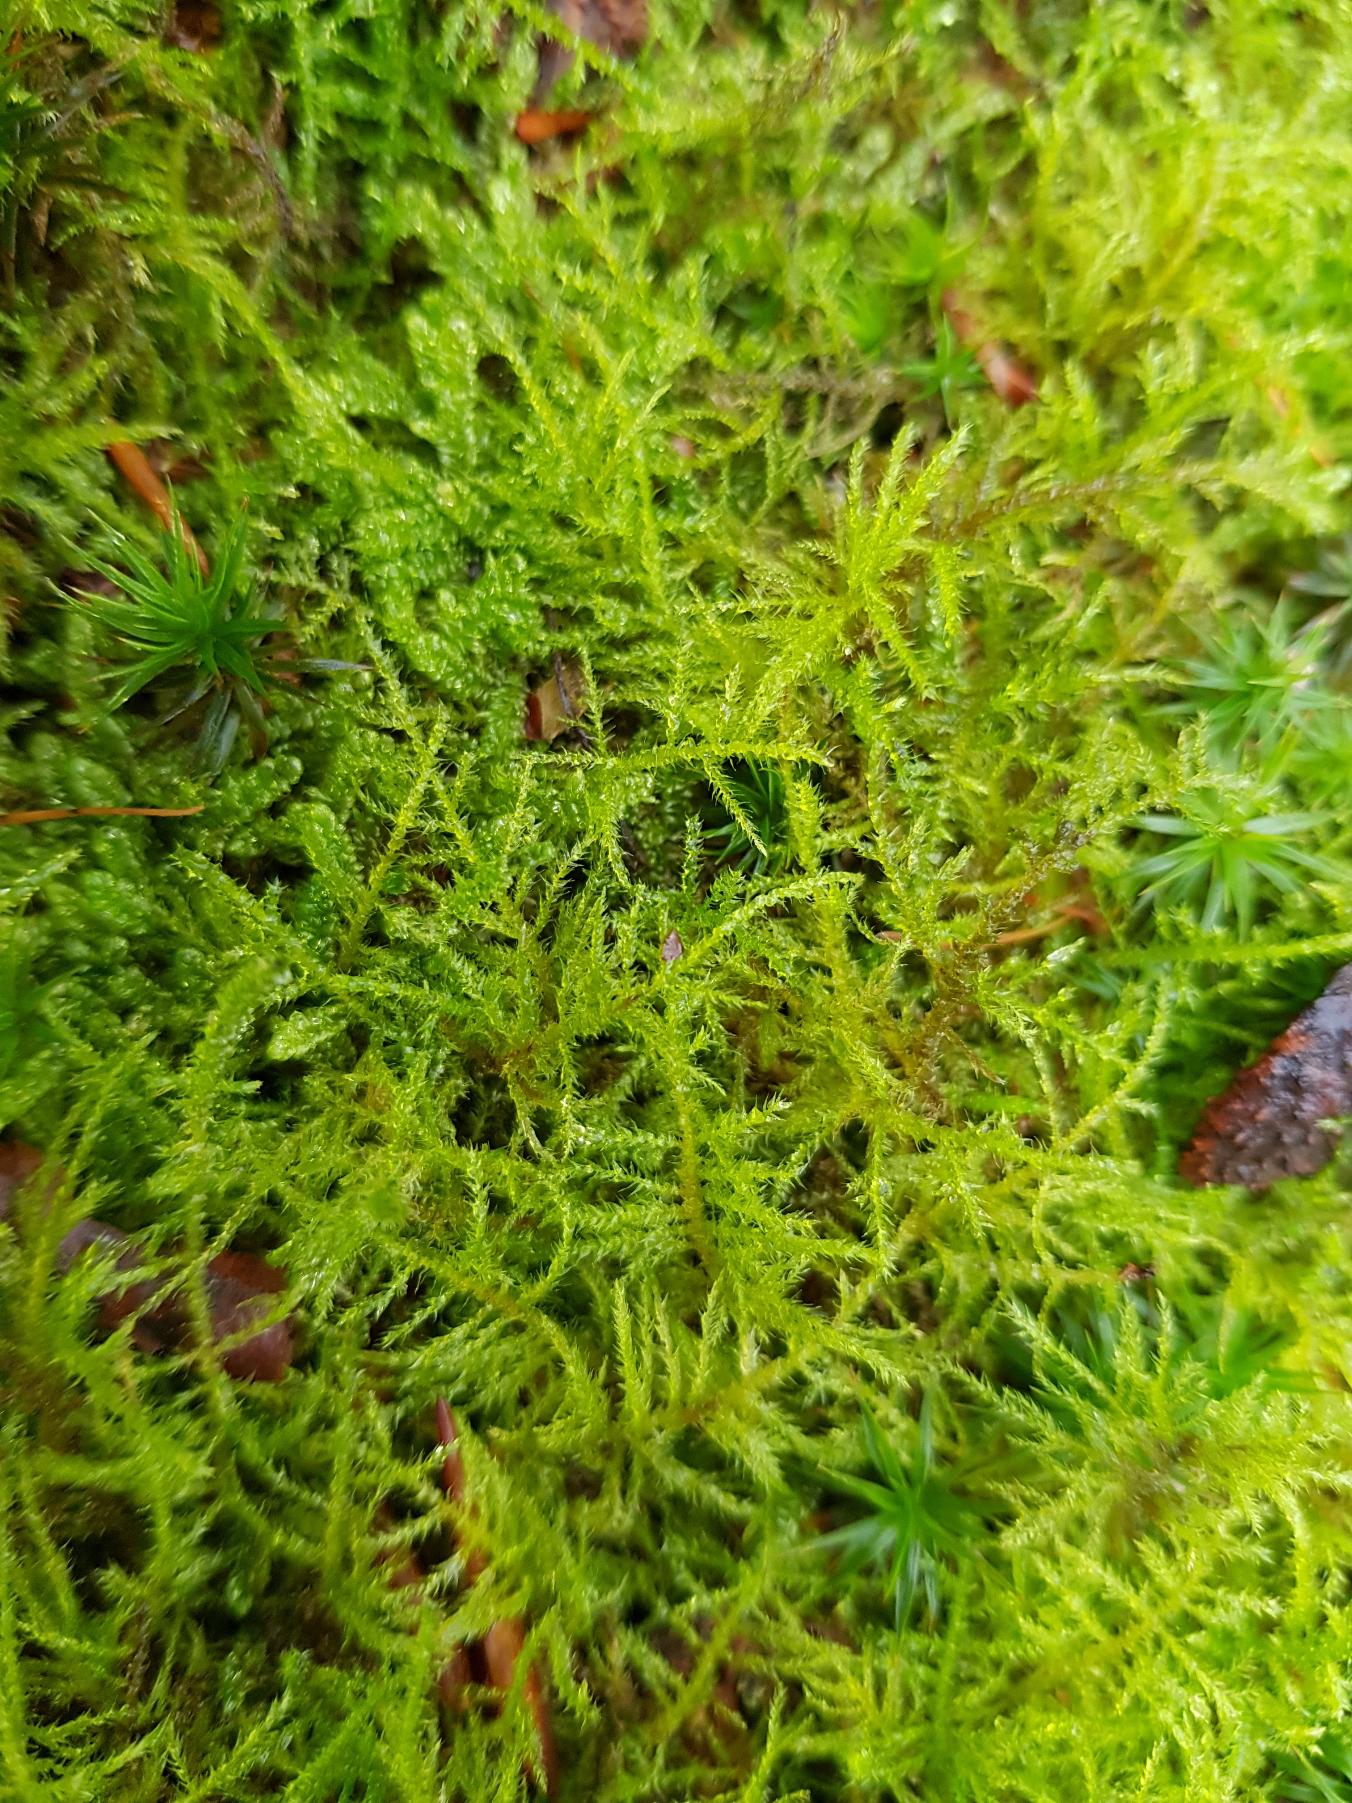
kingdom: Plantae
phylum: Bryophyta
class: Bryopsida
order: Hypnales
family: Brachytheciaceae
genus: Kindbergia
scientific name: Kindbergia praelonga
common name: Forskelligbladet vortetand
